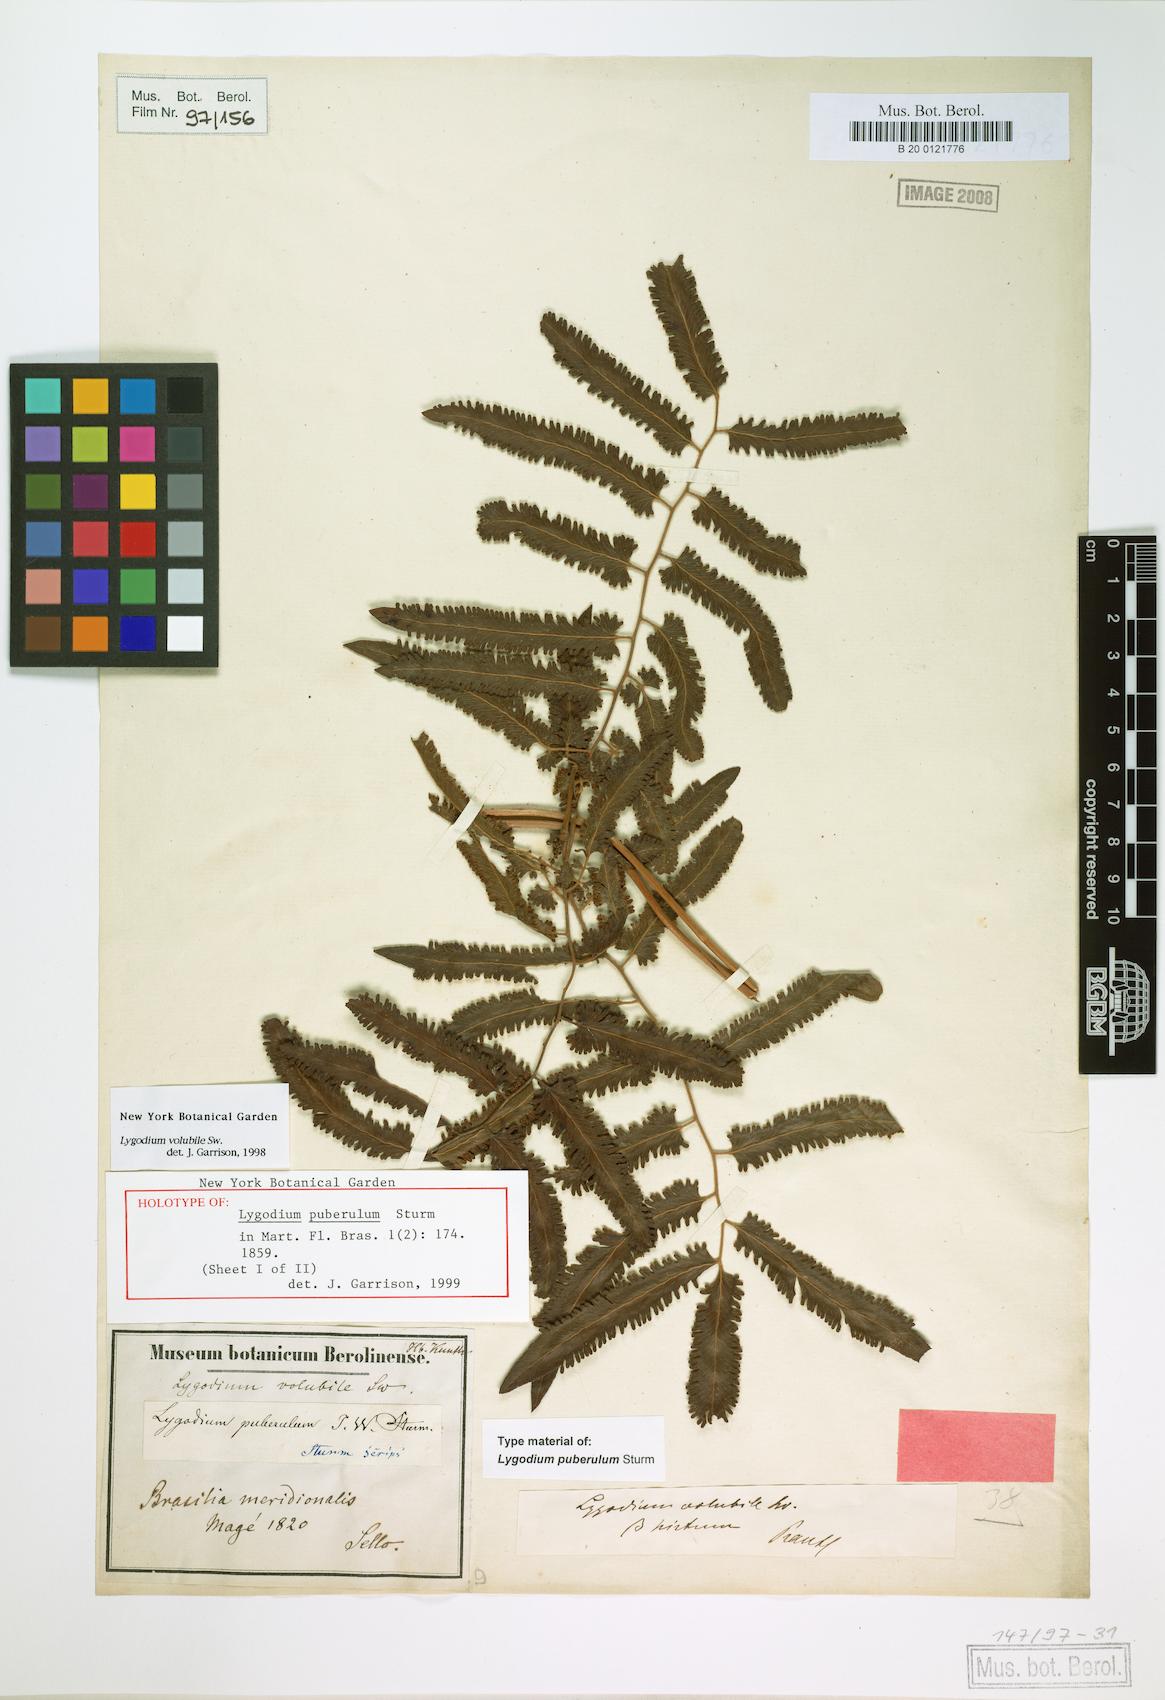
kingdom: Plantae
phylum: Tracheophyta
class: Polypodiopsida
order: Schizaeales
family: Lygodiaceae
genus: Lygodium
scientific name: Lygodium volubile
